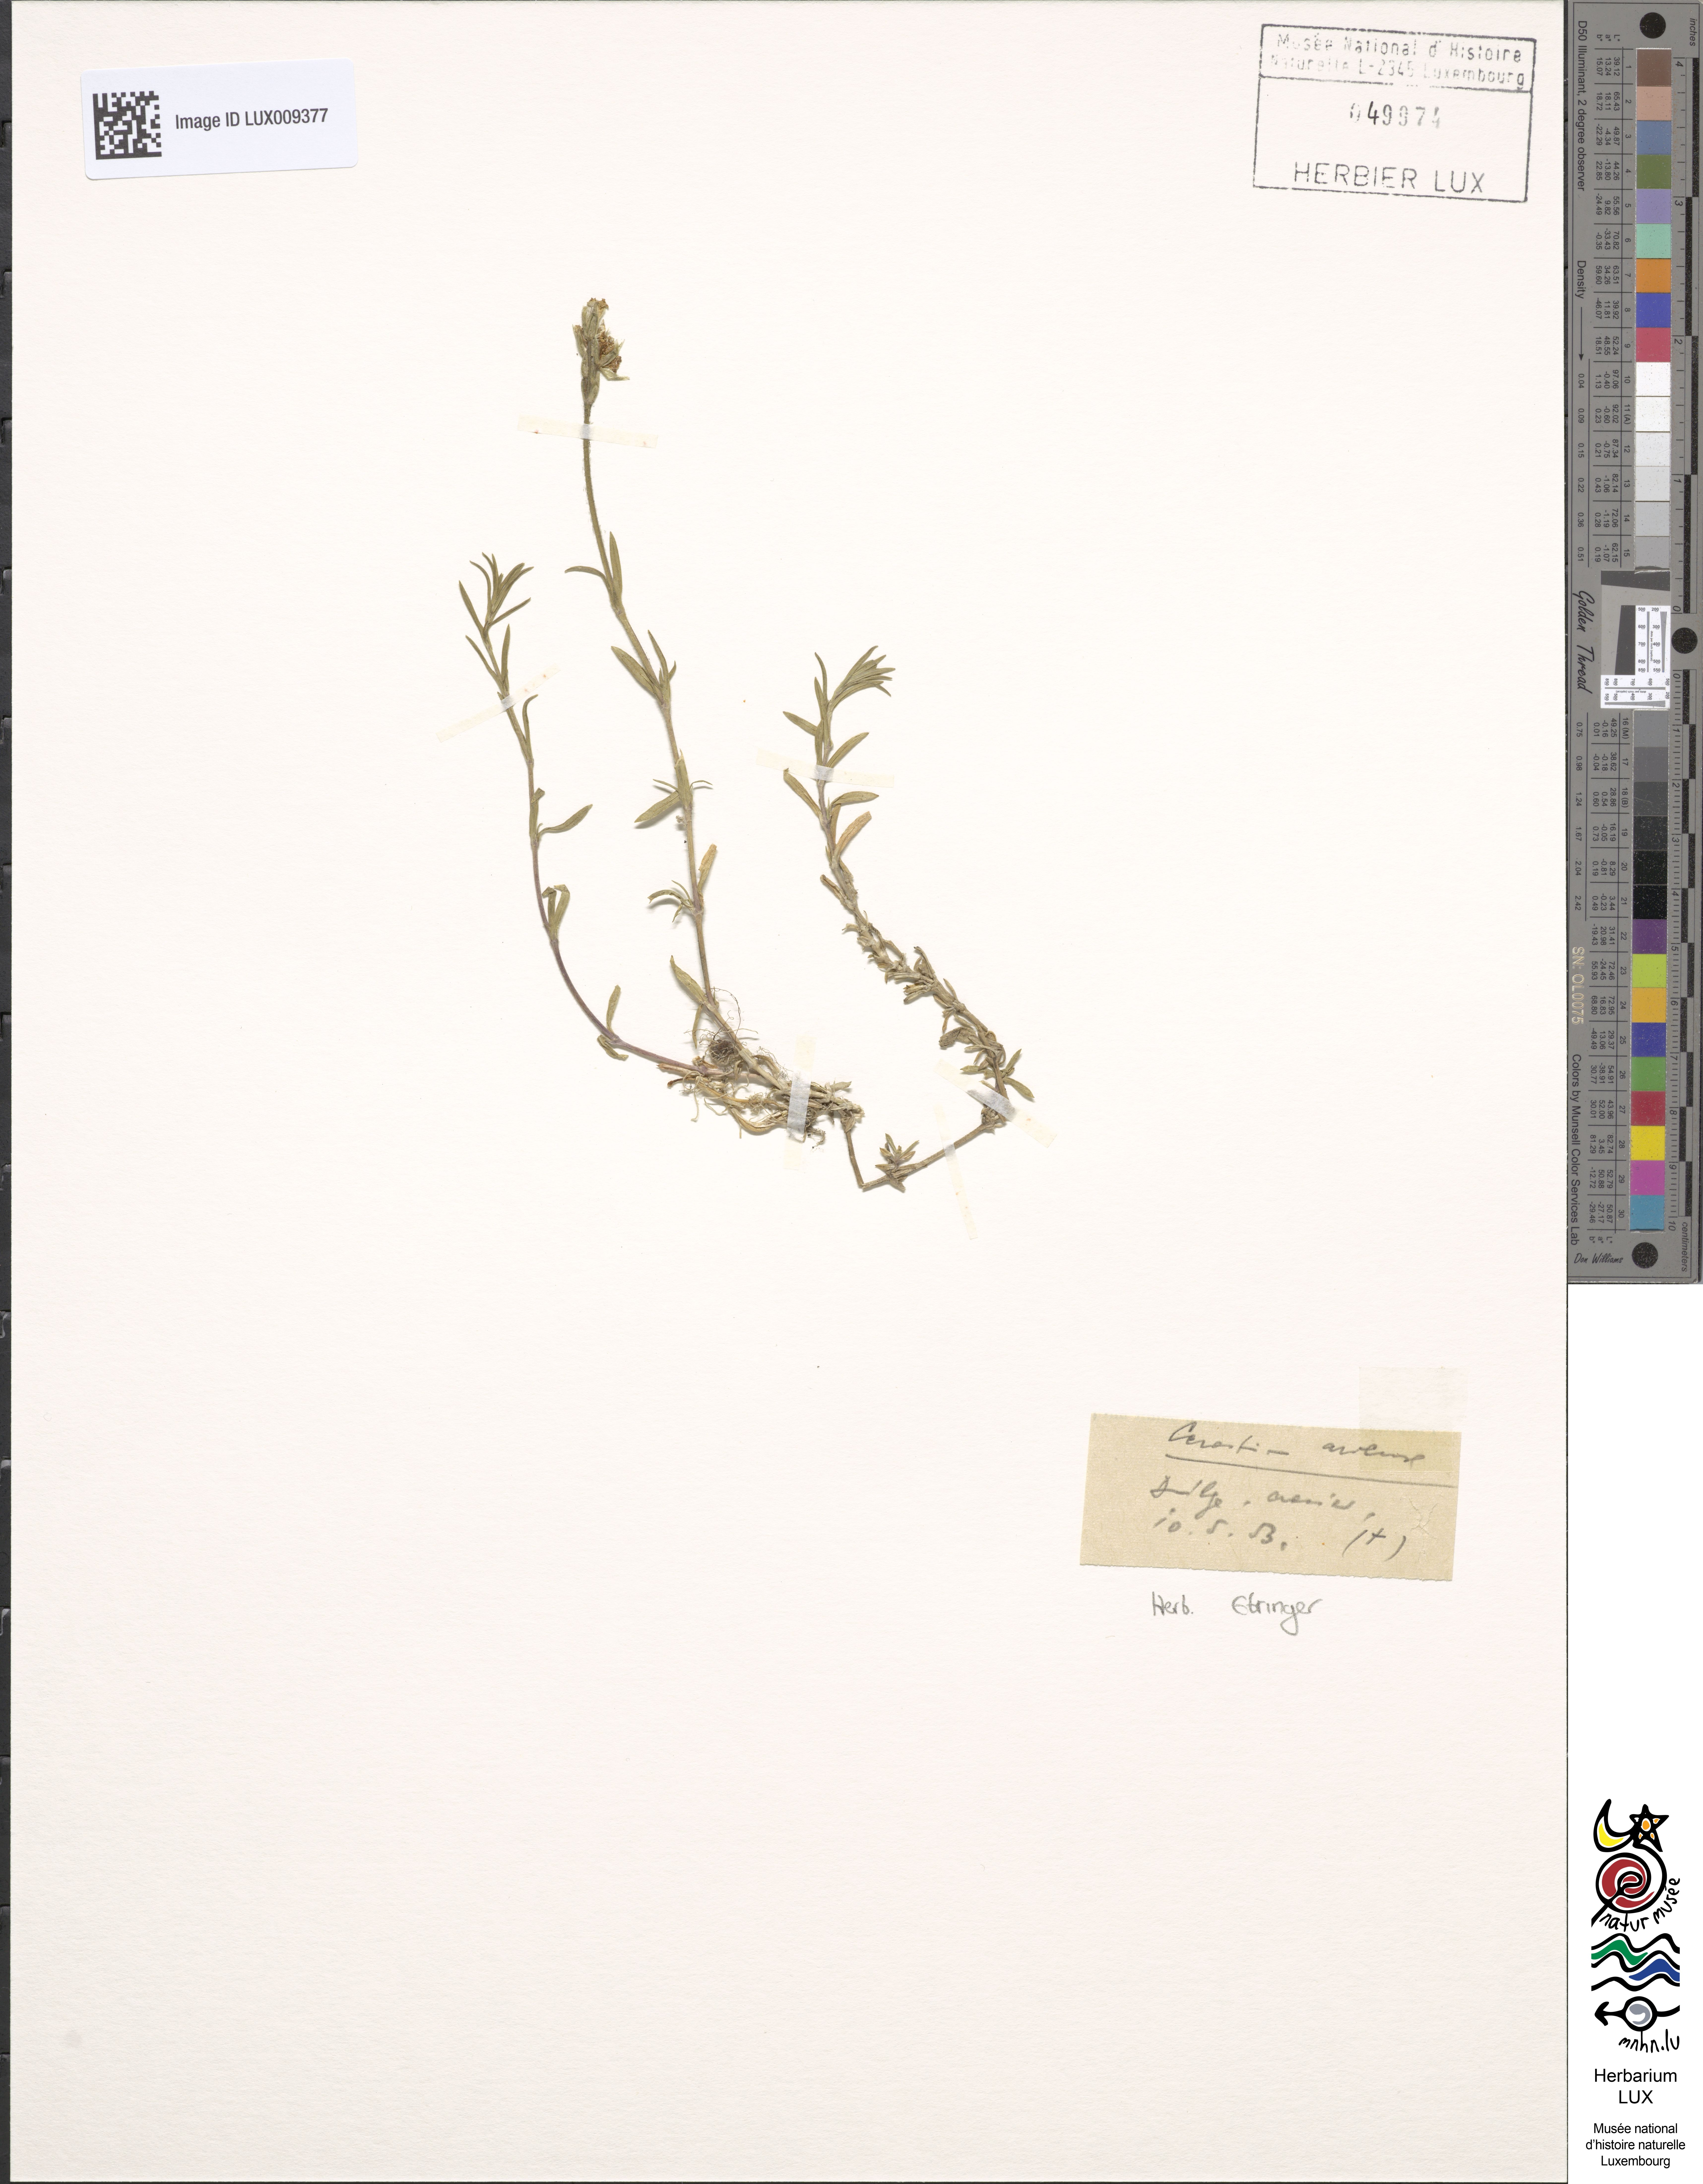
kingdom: Plantae
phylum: Tracheophyta
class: Magnoliopsida
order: Caryophyllales
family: Caryophyllaceae
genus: Cerastium
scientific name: Cerastium arvense
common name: Field mouse-ear
